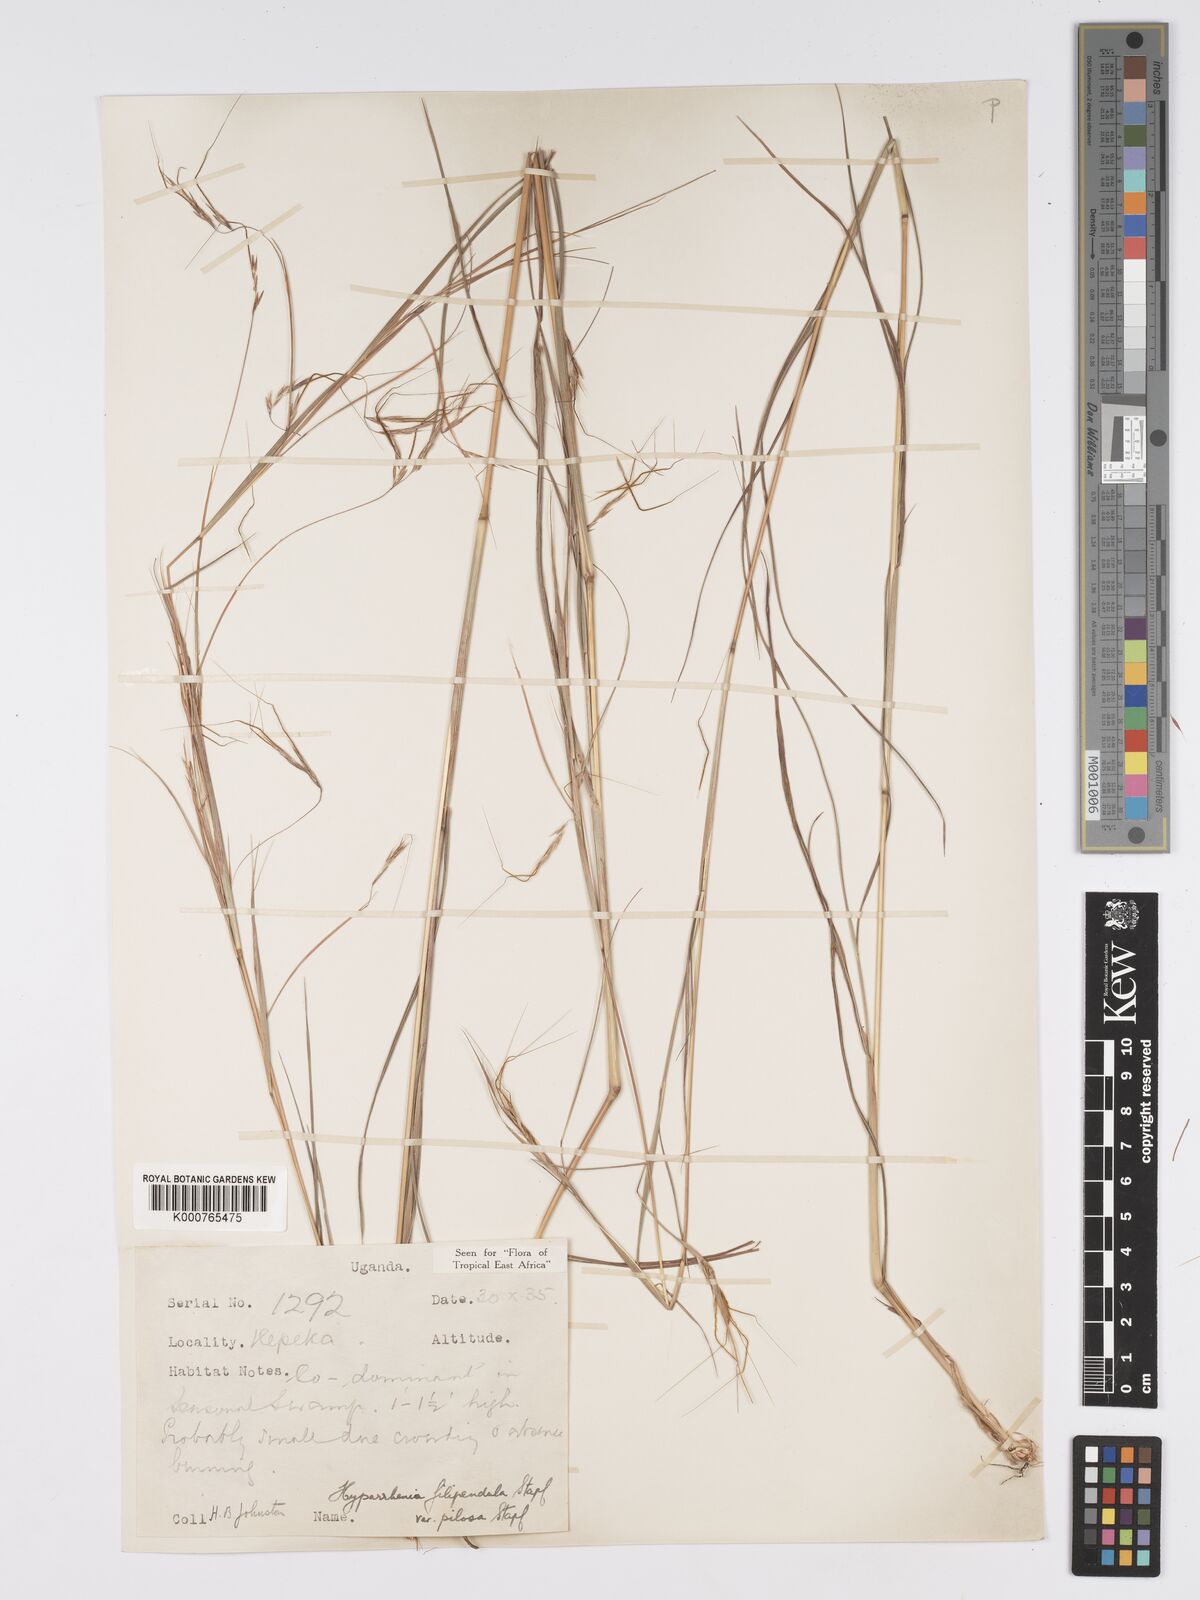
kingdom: Plantae
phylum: Tracheophyta
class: Liliopsida
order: Poales
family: Poaceae
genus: Hyparrhenia
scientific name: Hyparrhenia filipendula
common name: Tambookie grass
